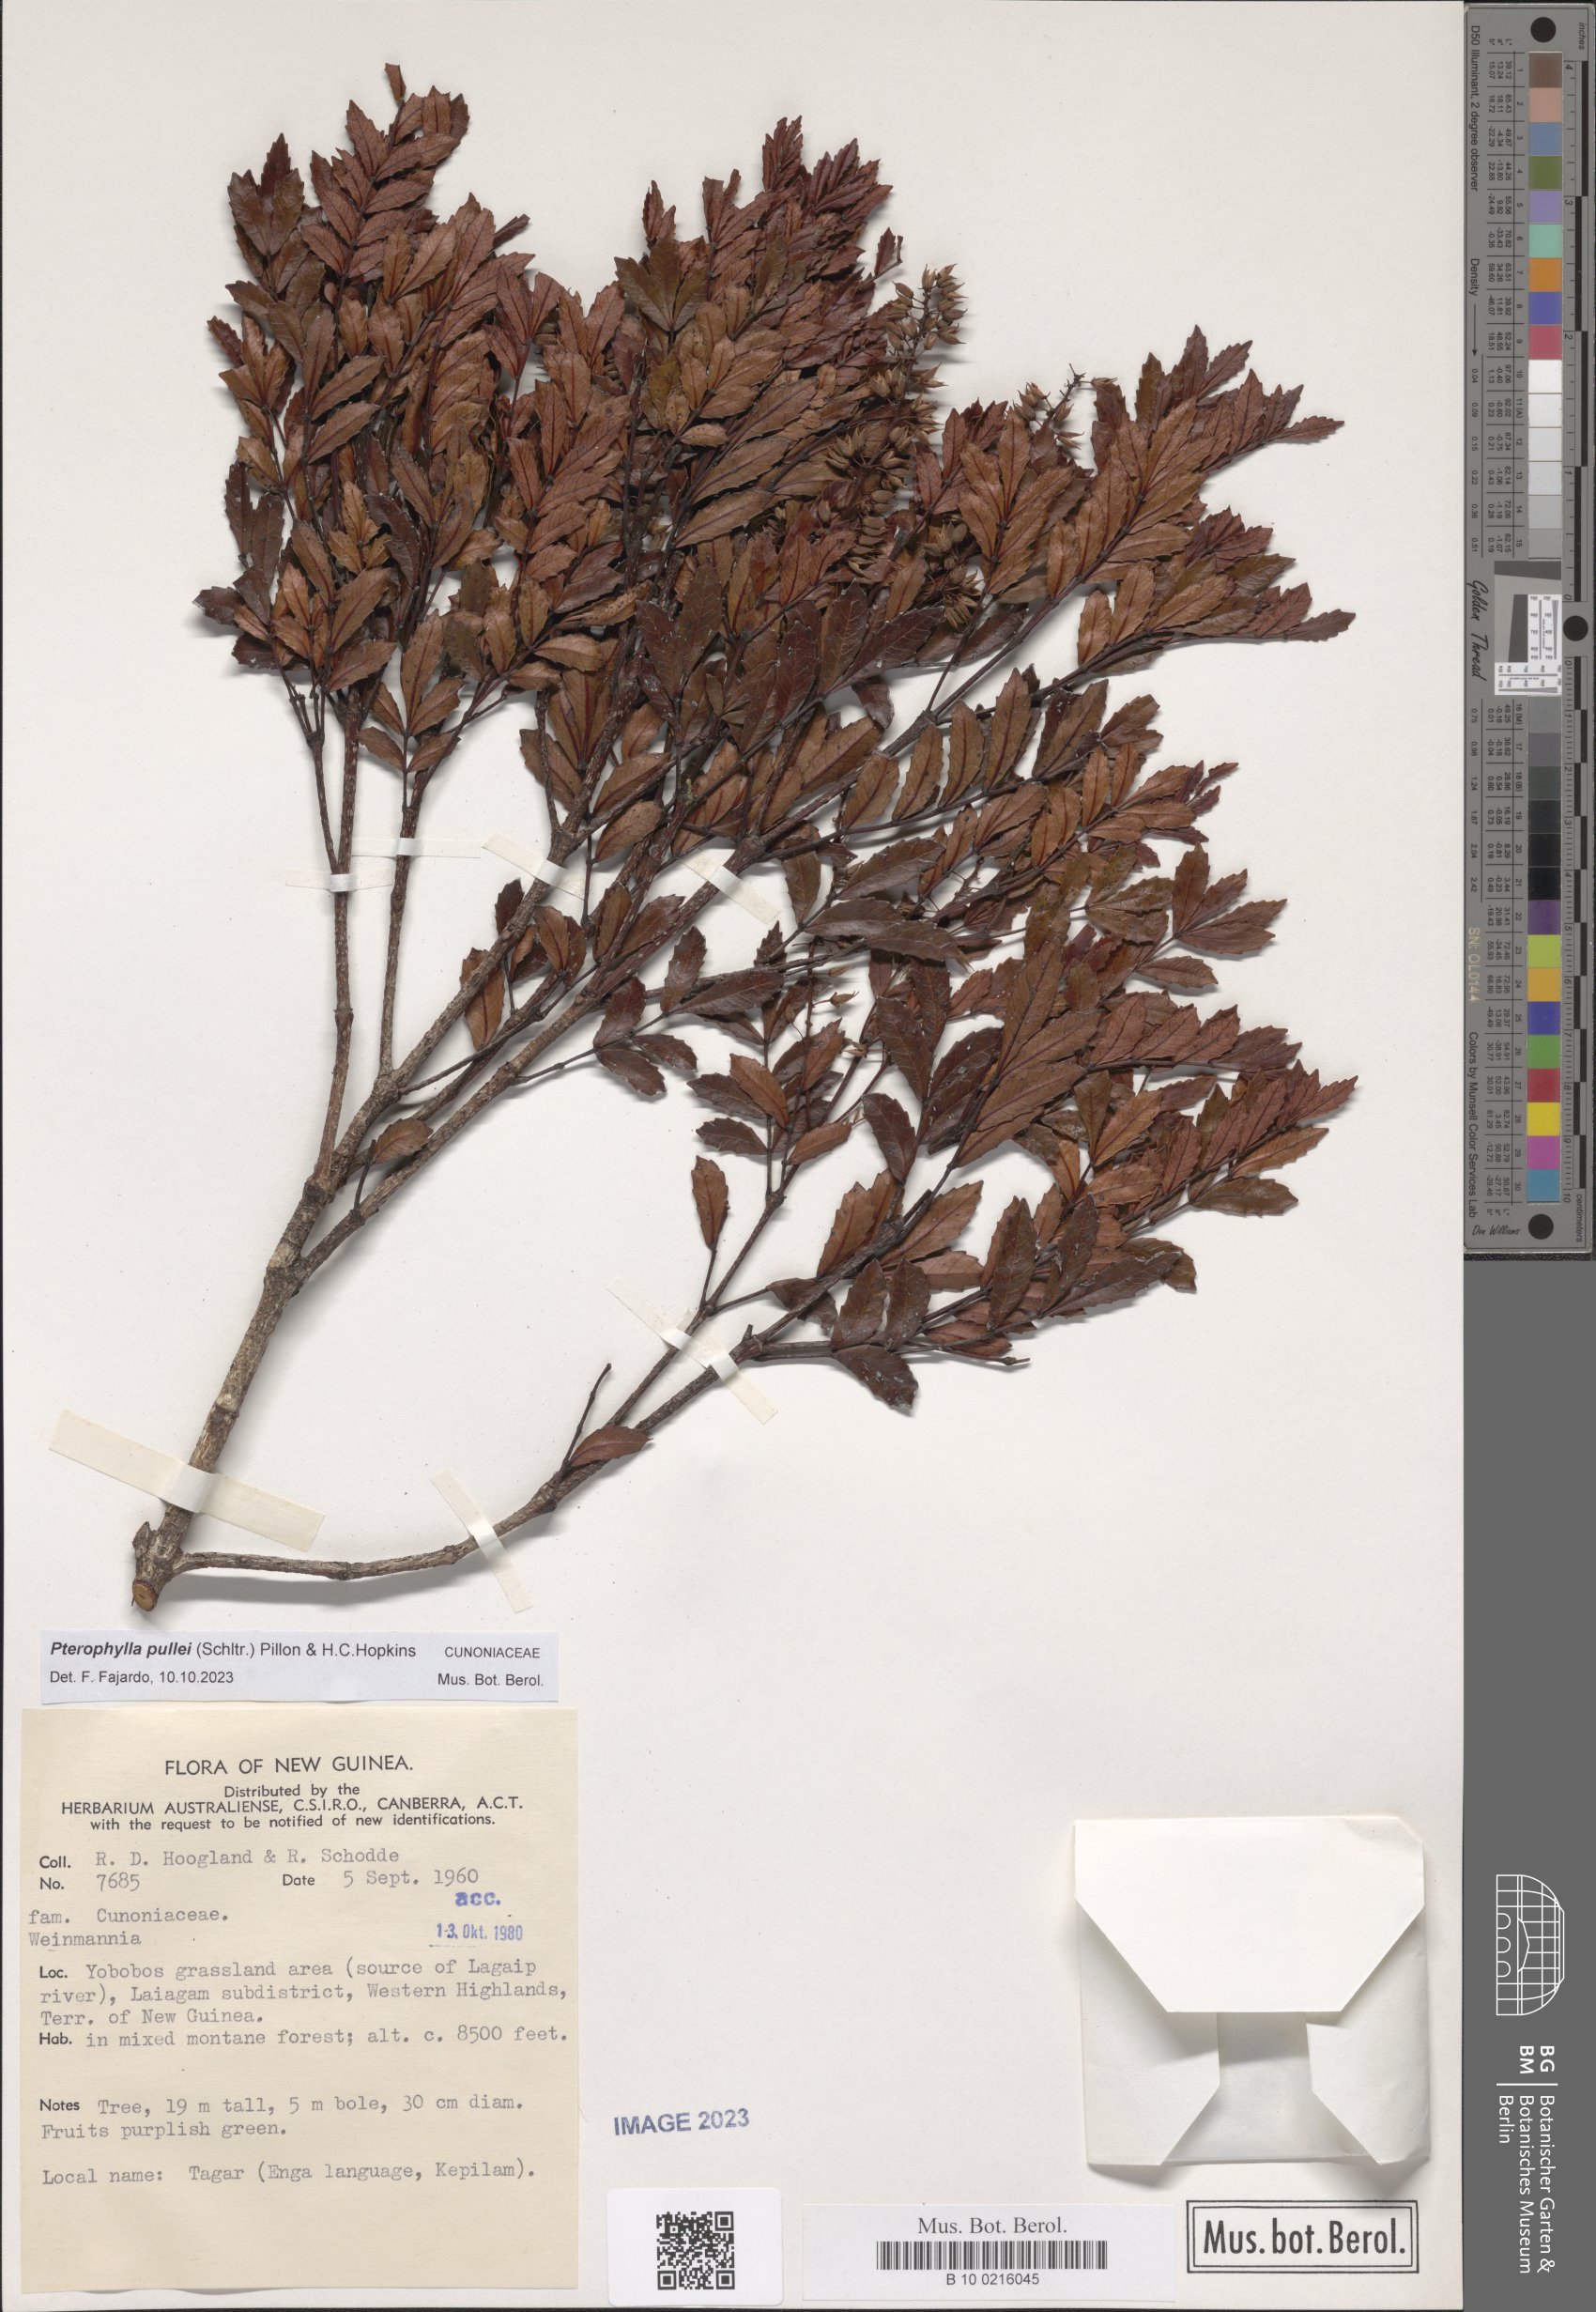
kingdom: Plantae
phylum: Tracheophyta
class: Magnoliopsida
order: Oxalidales
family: Cunoniaceae
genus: Pterophylla
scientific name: Pterophylla pullei
